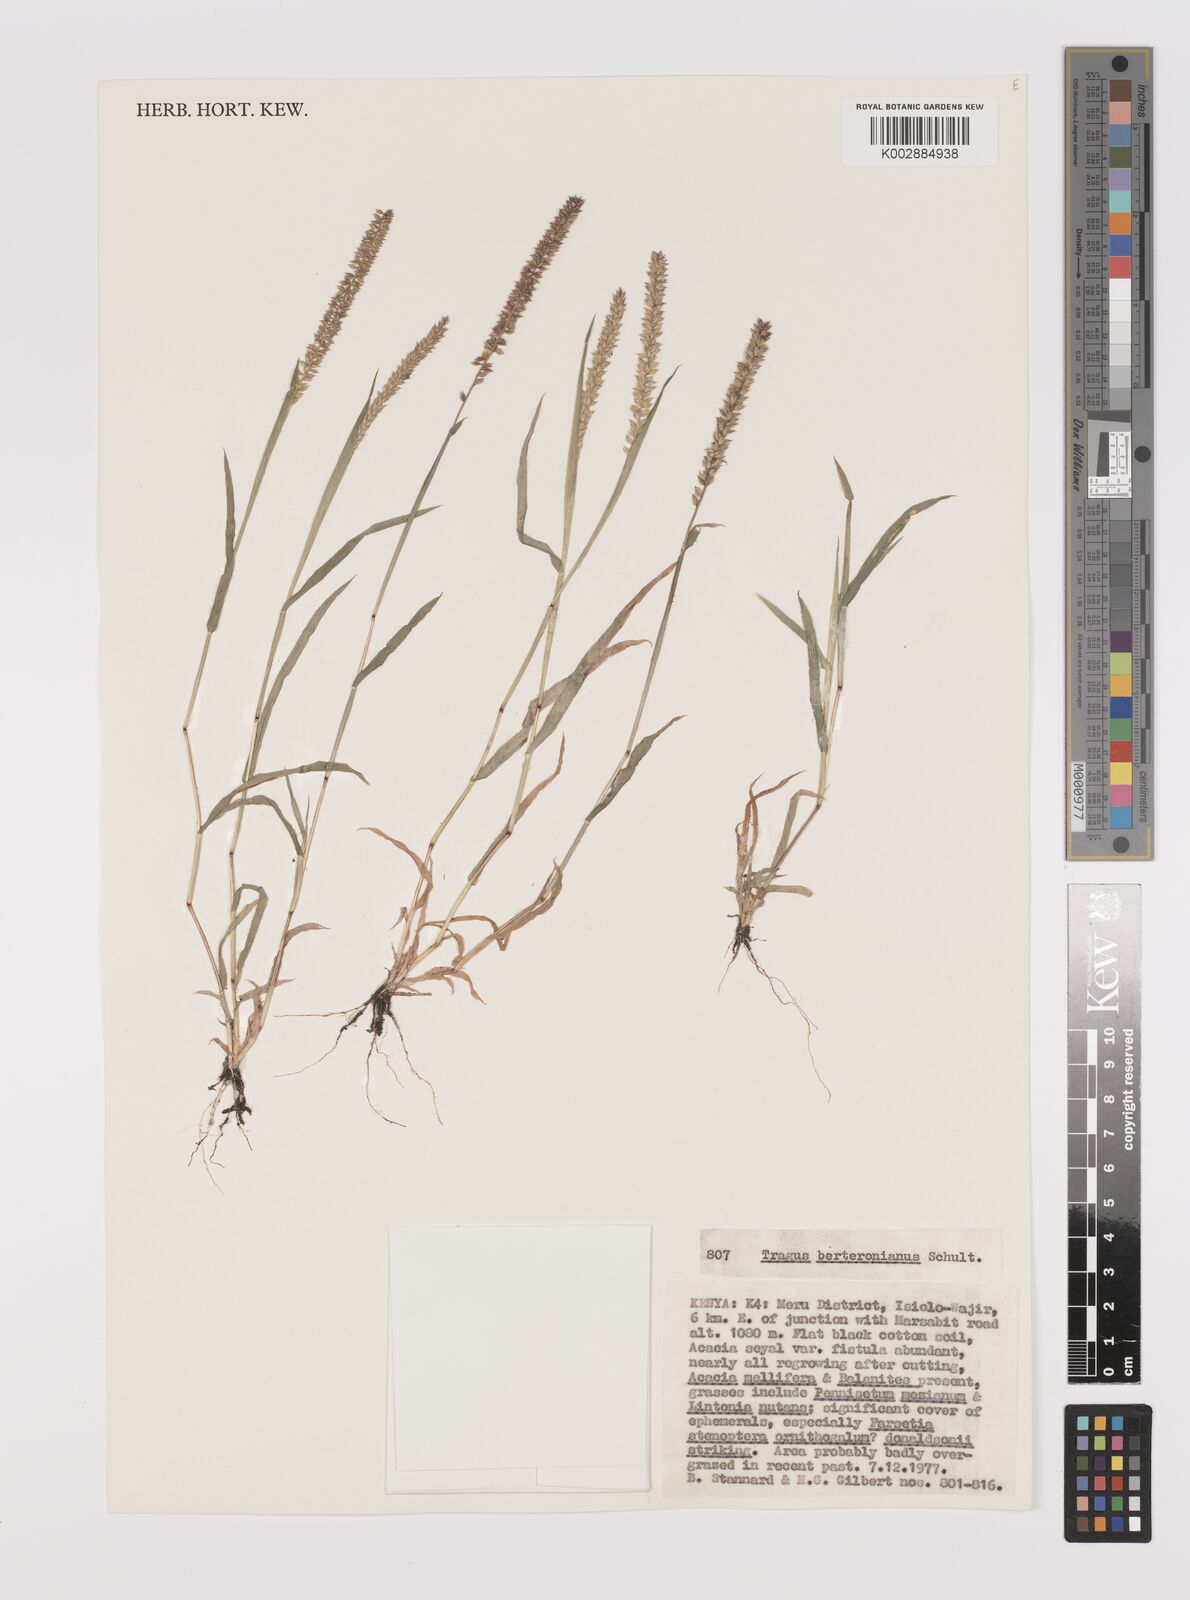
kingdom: Plantae
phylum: Tracheophyta
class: Liliopsida
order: Poales
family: Poaceae
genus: Tragus
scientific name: Tragus berteronianus
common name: African bur-grass
